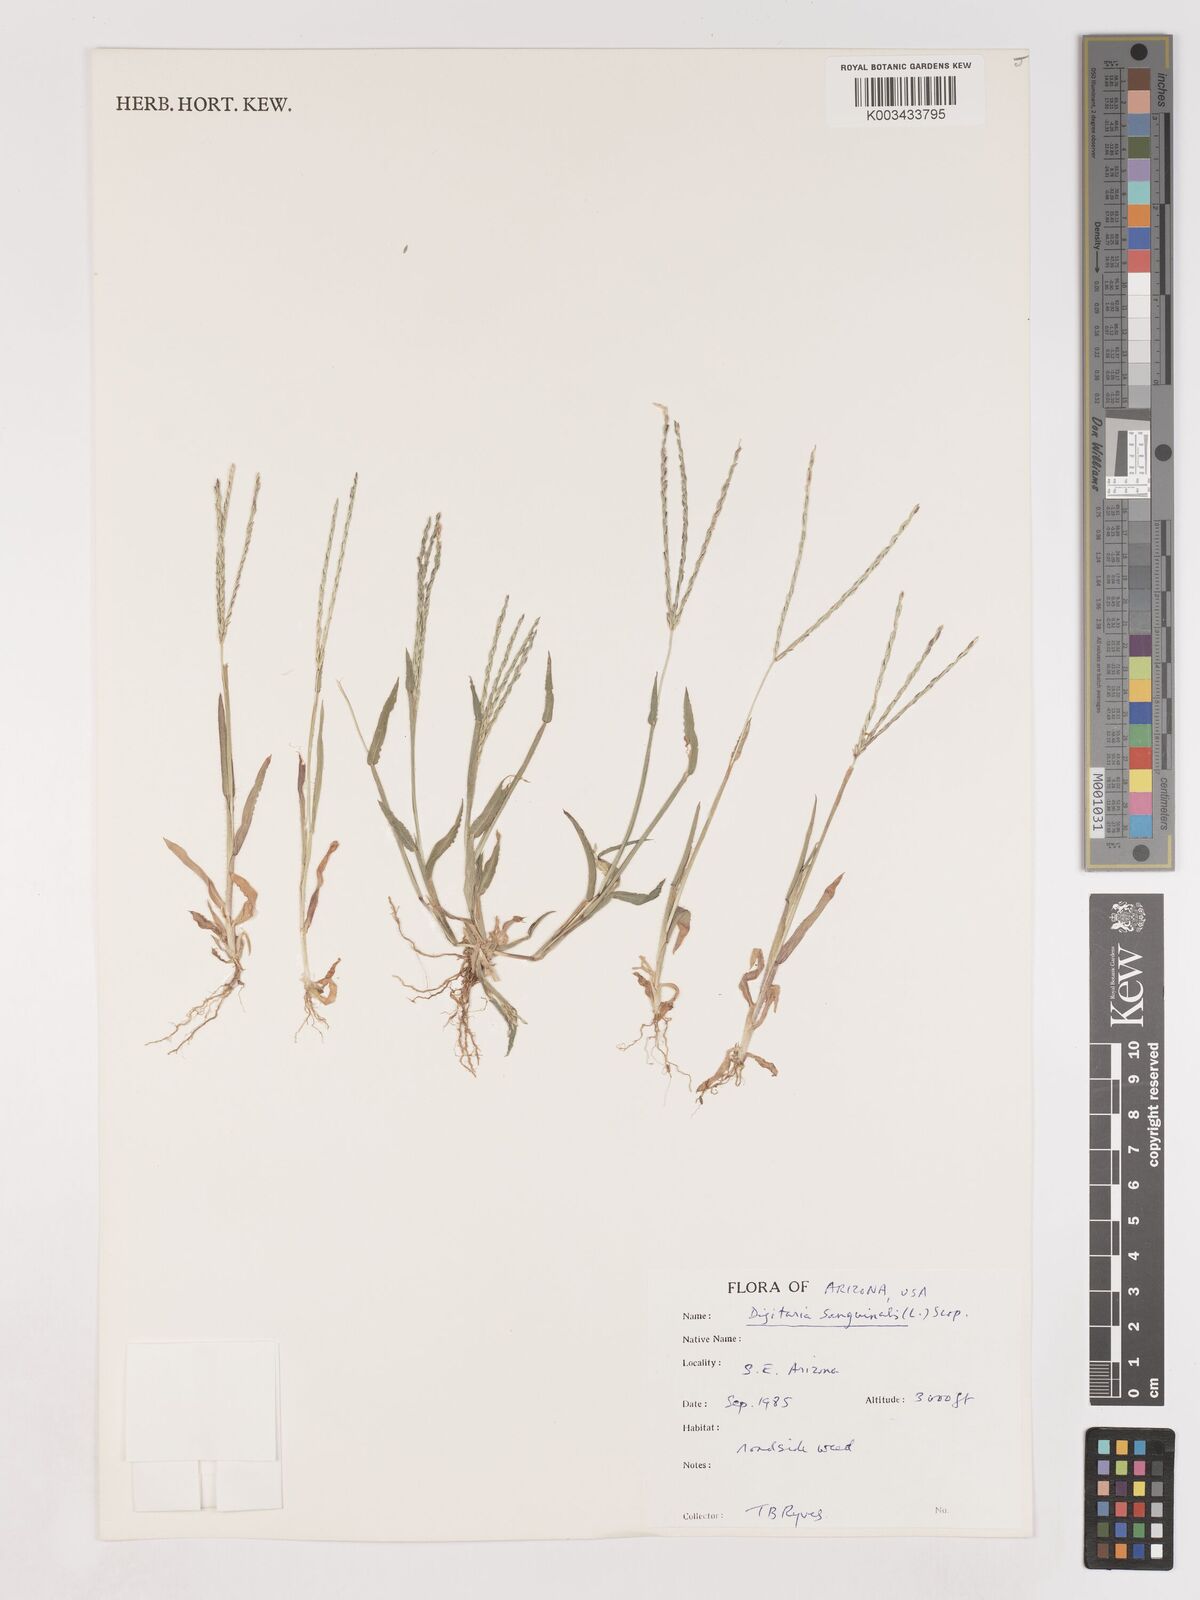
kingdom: Plantae
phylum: Tracheophyta
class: Liliopsida
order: Poales
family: Poaceae
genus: Digitaria
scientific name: Digitaria sanguinalis
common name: Hairy crabgrass
